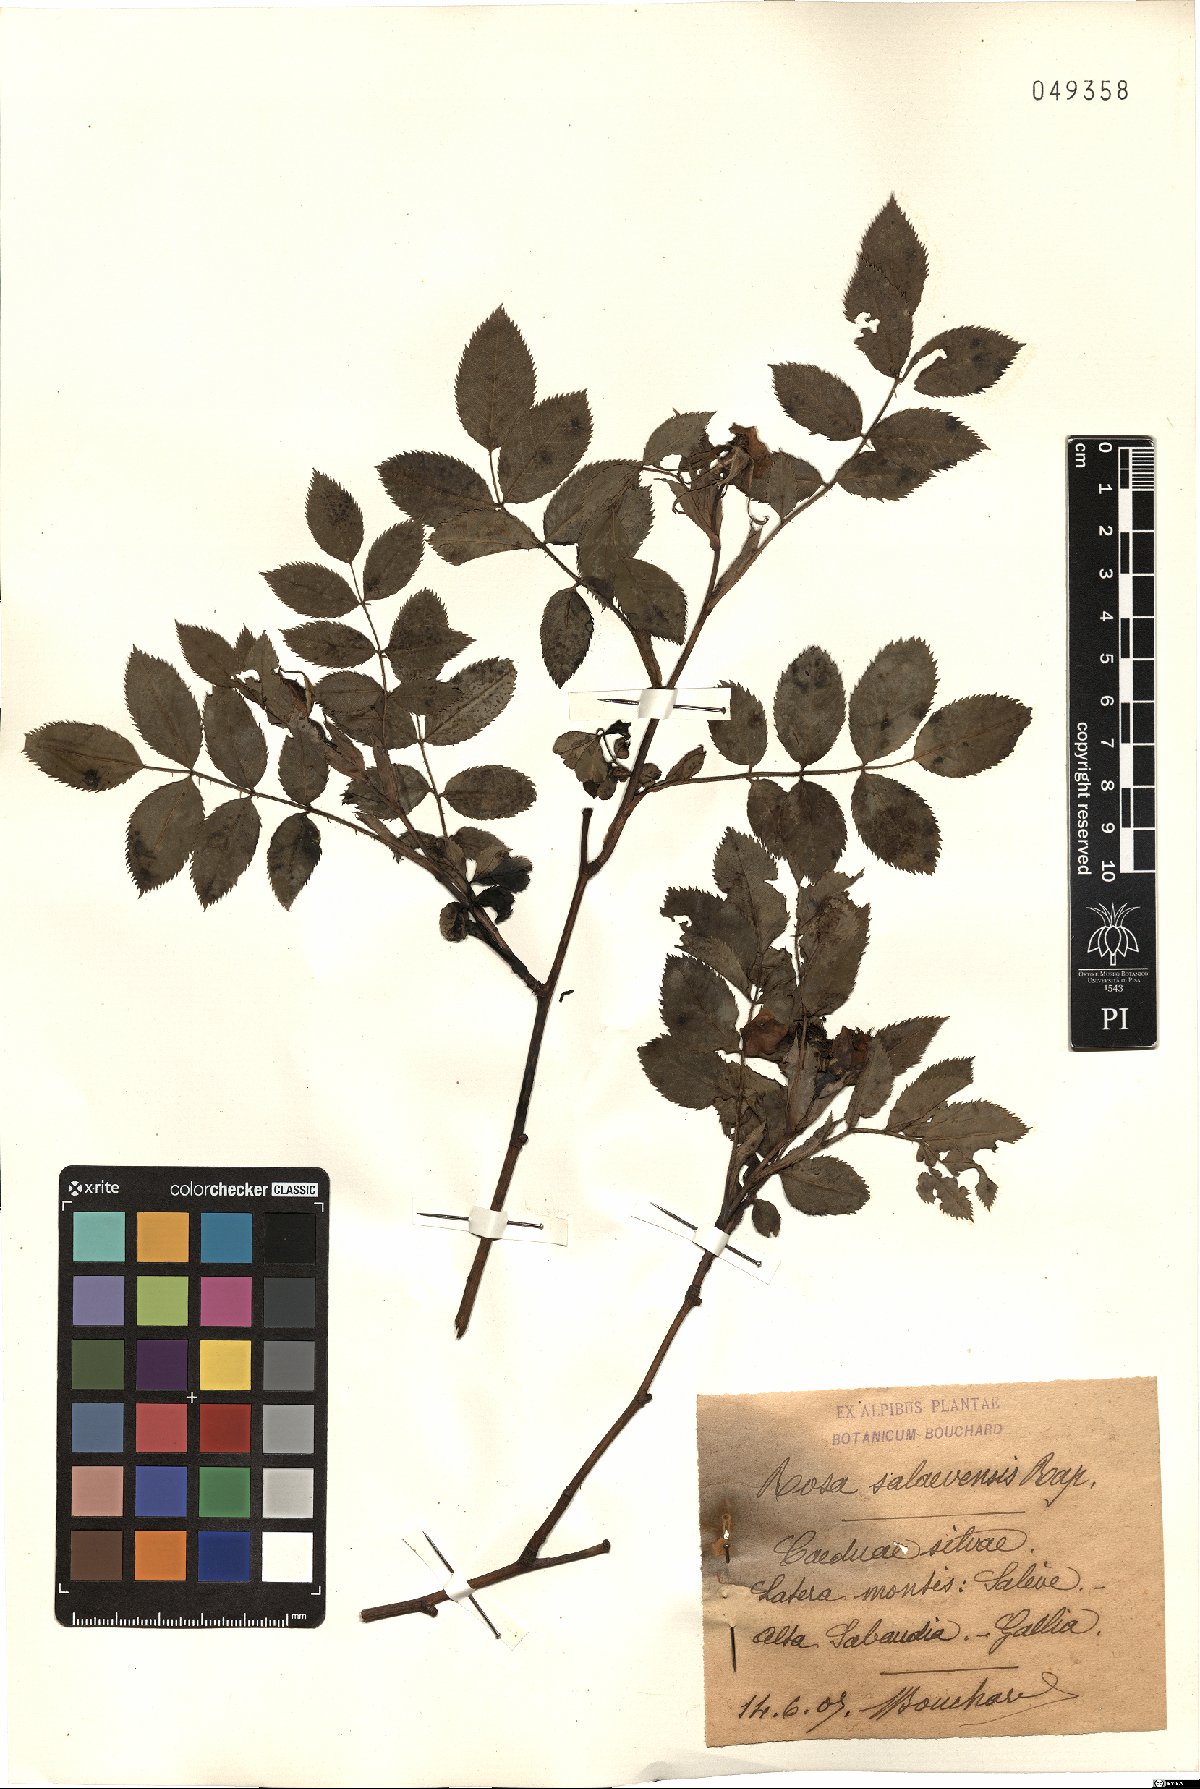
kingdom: Plantae
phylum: Tracheophyta
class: Magnoliopsida
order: Rosales
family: Rosaceae
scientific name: Rosaceae
